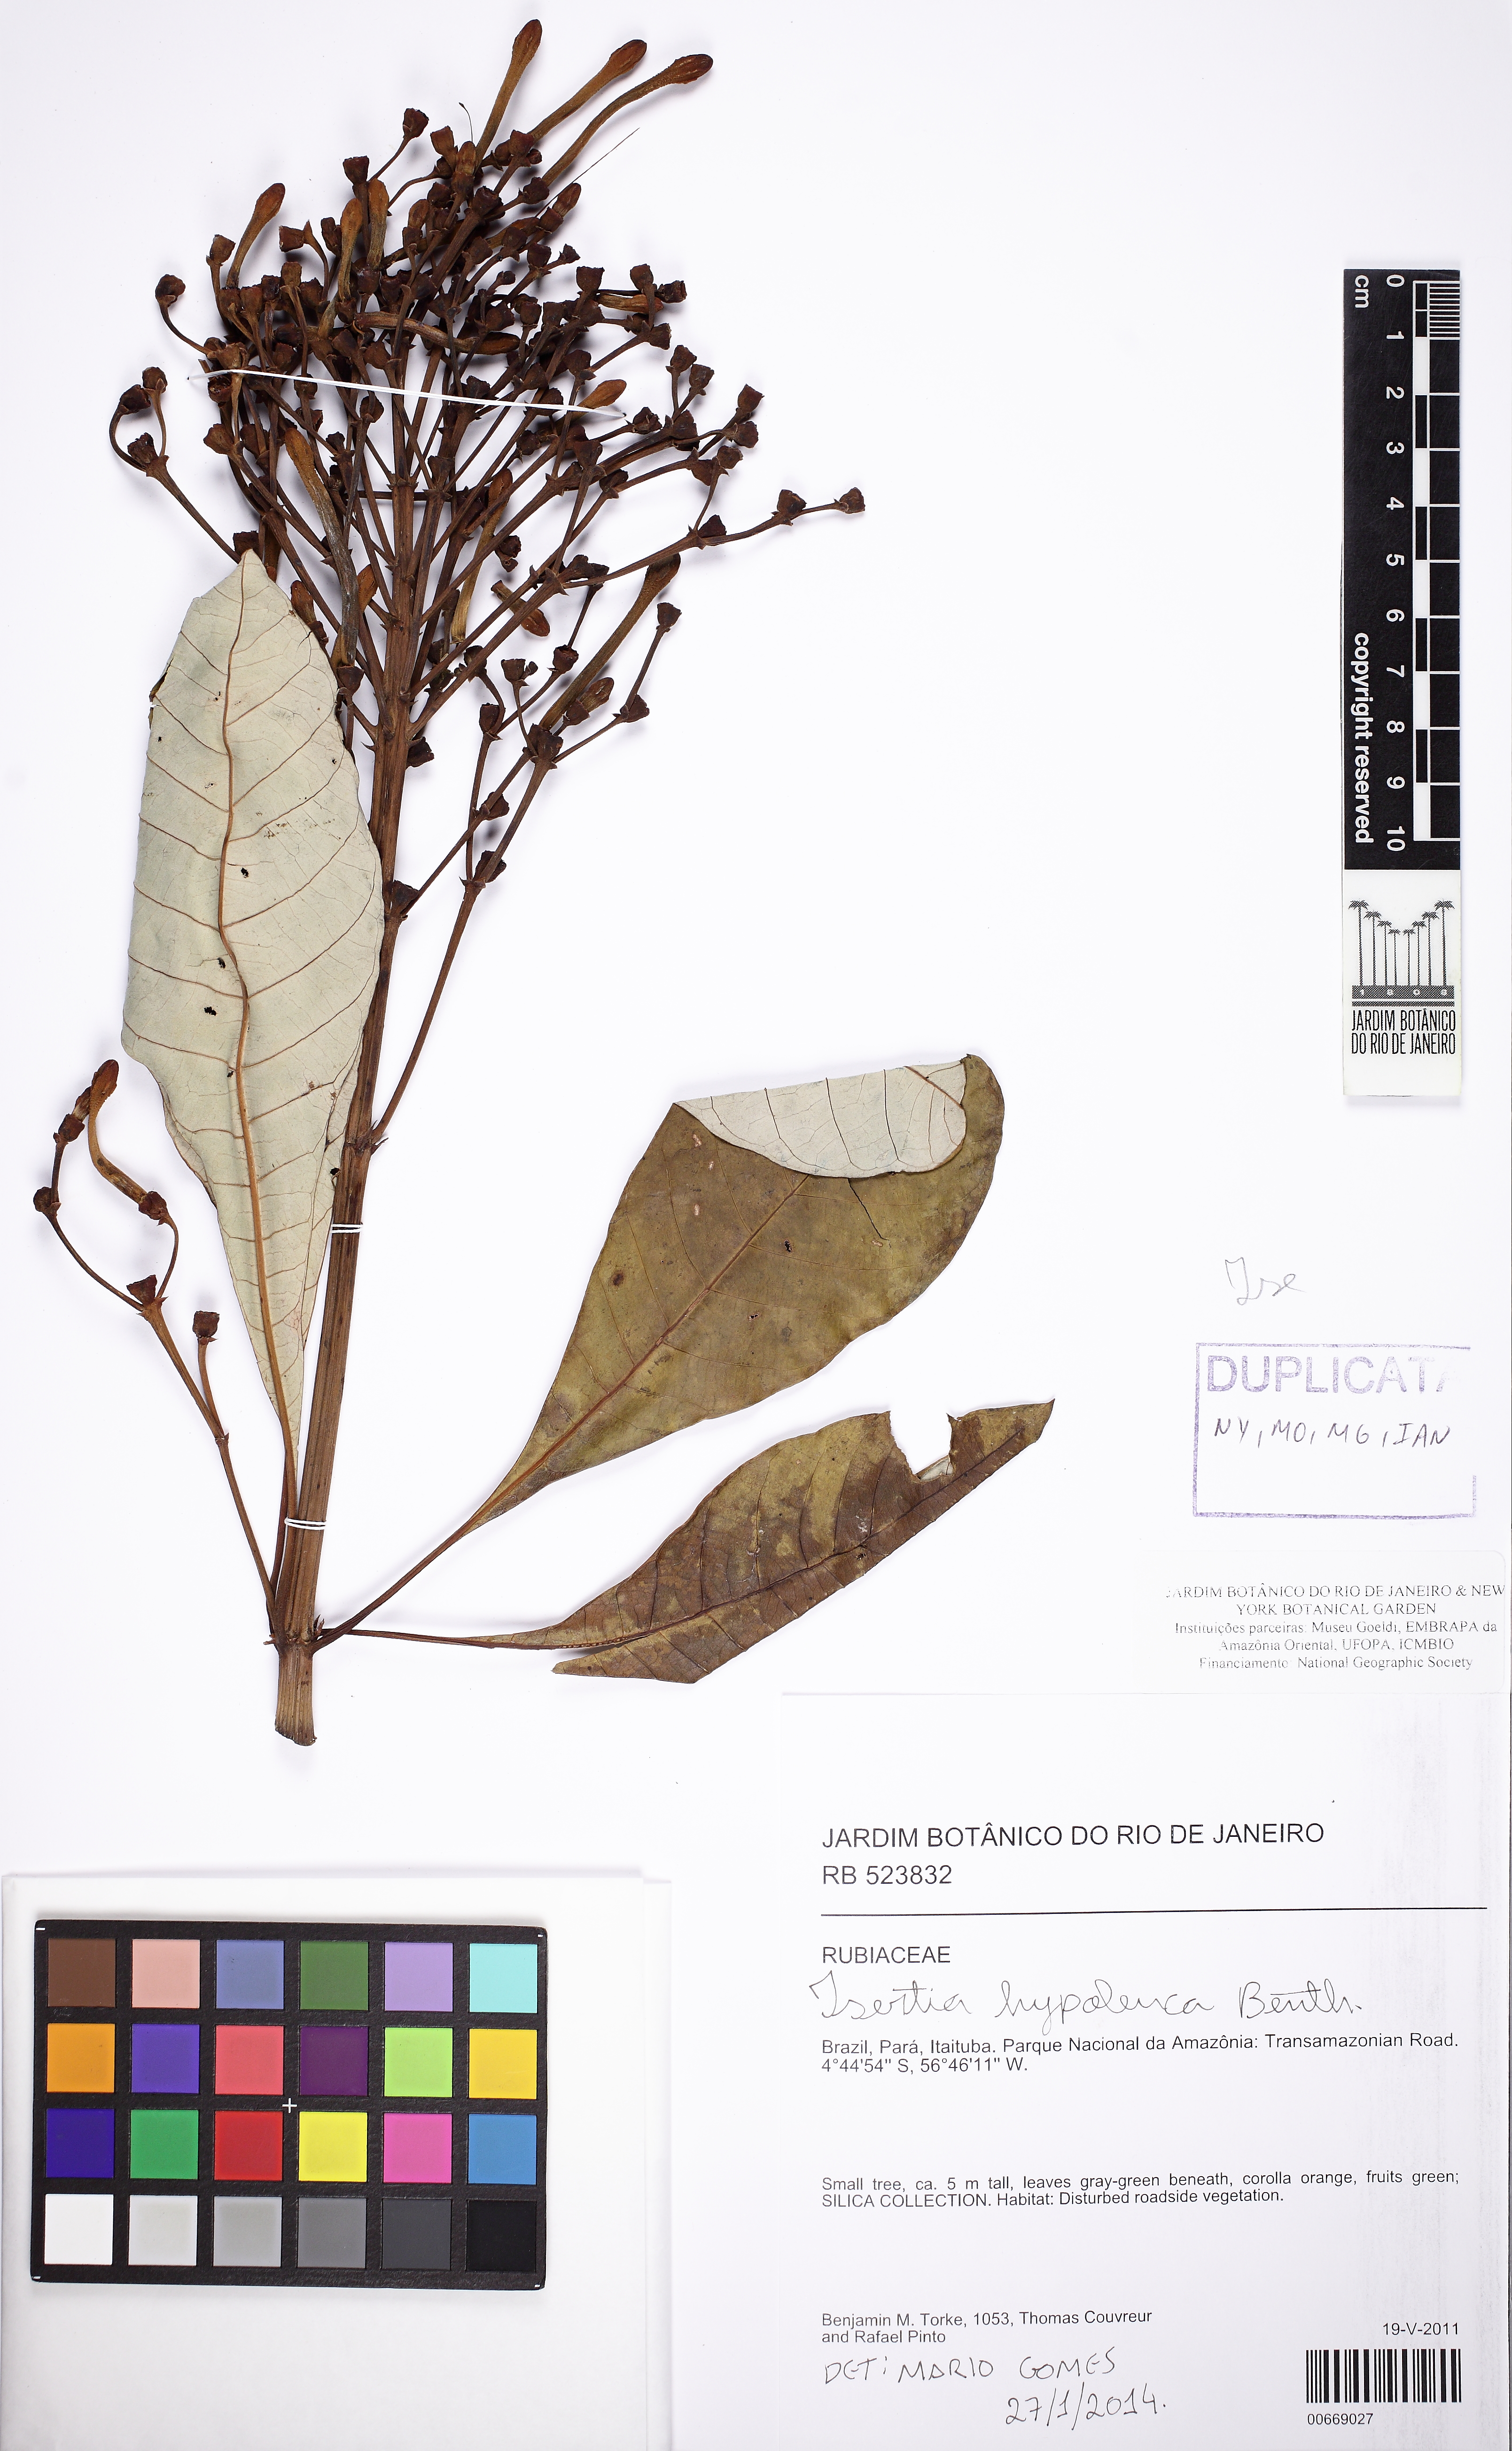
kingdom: Plantae
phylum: Tracheophyta
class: Magnoliopsida
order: Gentianales
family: Rubiaceae
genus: Isertia
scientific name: Isertia hypoleuca
